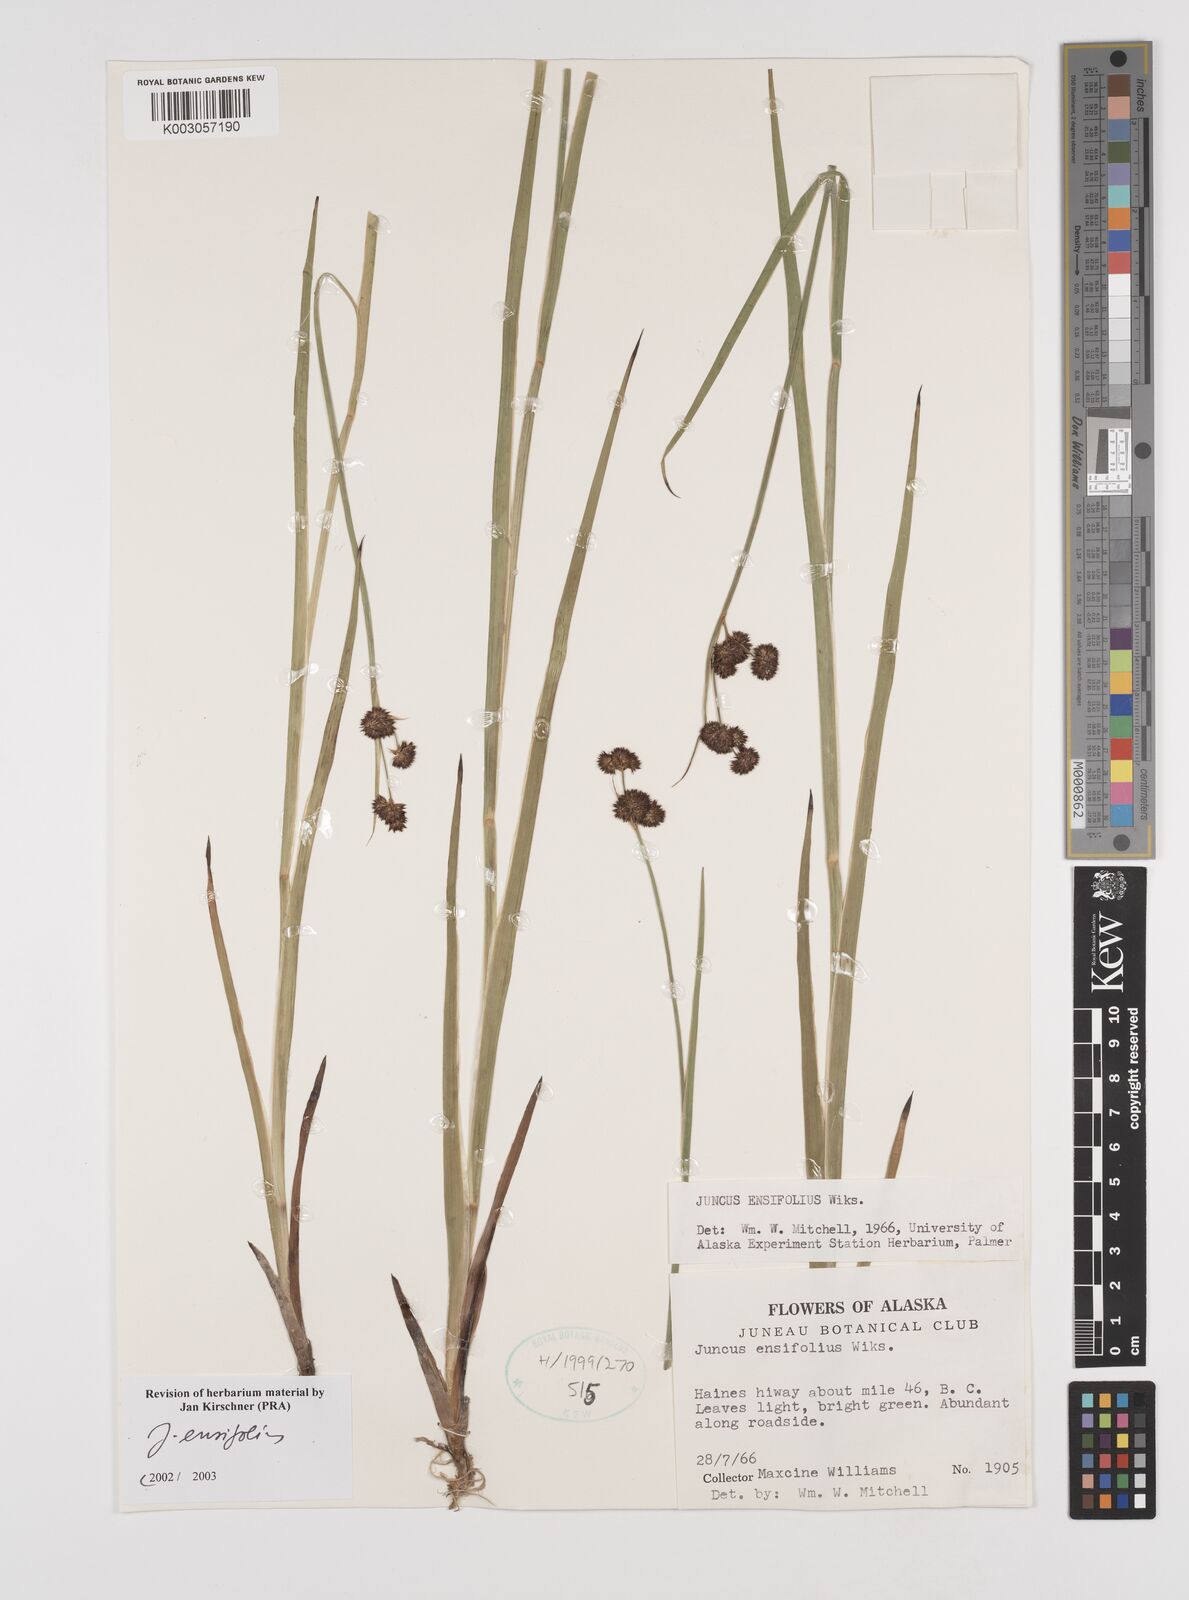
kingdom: Plantae
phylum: Tracheophyta
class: Liliopsida
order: Poales
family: Juncaceae
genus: Juncus
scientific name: Juncus ensifolius
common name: Sword-leaved rush
